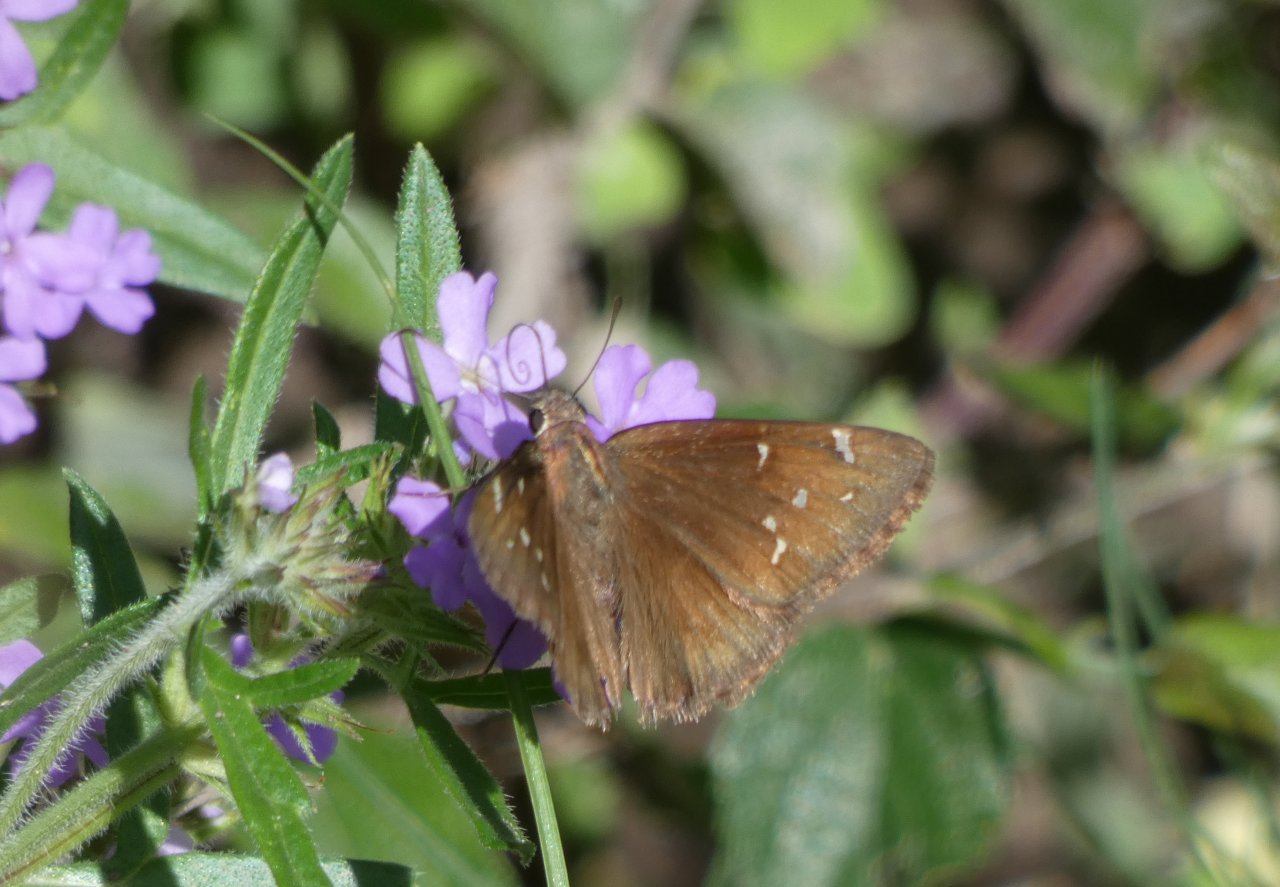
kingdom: Animalia
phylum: Arthropoda
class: Insecta
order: Lepidoptera
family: Hesperiidae
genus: Autochton
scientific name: Autochton
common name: Northern Cloudywing
